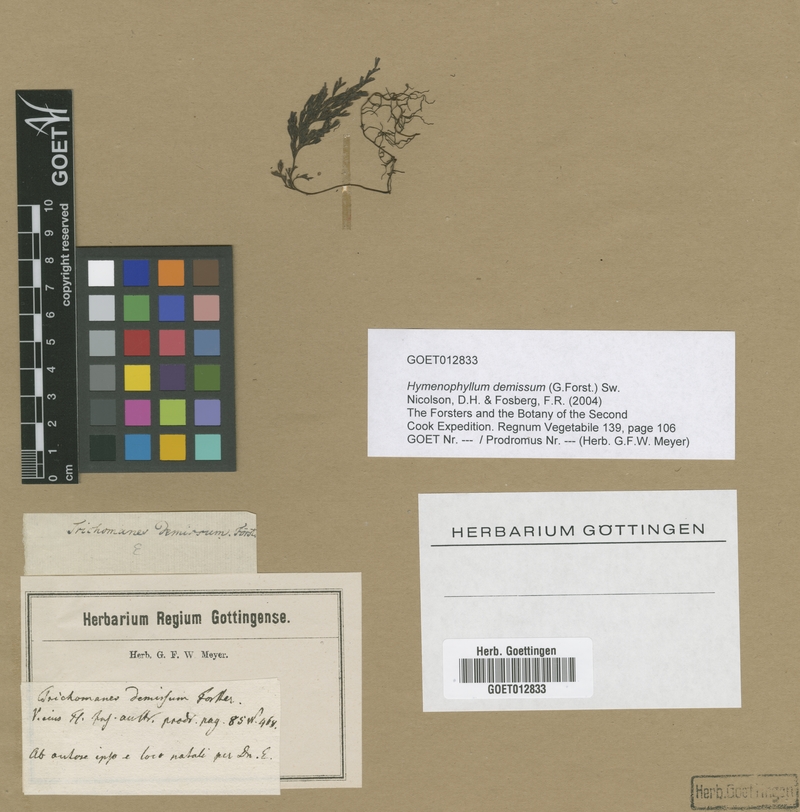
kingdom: Plantae
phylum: Tracheophyta
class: Polypodiopsida
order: Hymenophyllales
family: Hymenophyllaceae
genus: Hymenophyllum
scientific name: Hymenophyllum demissum
